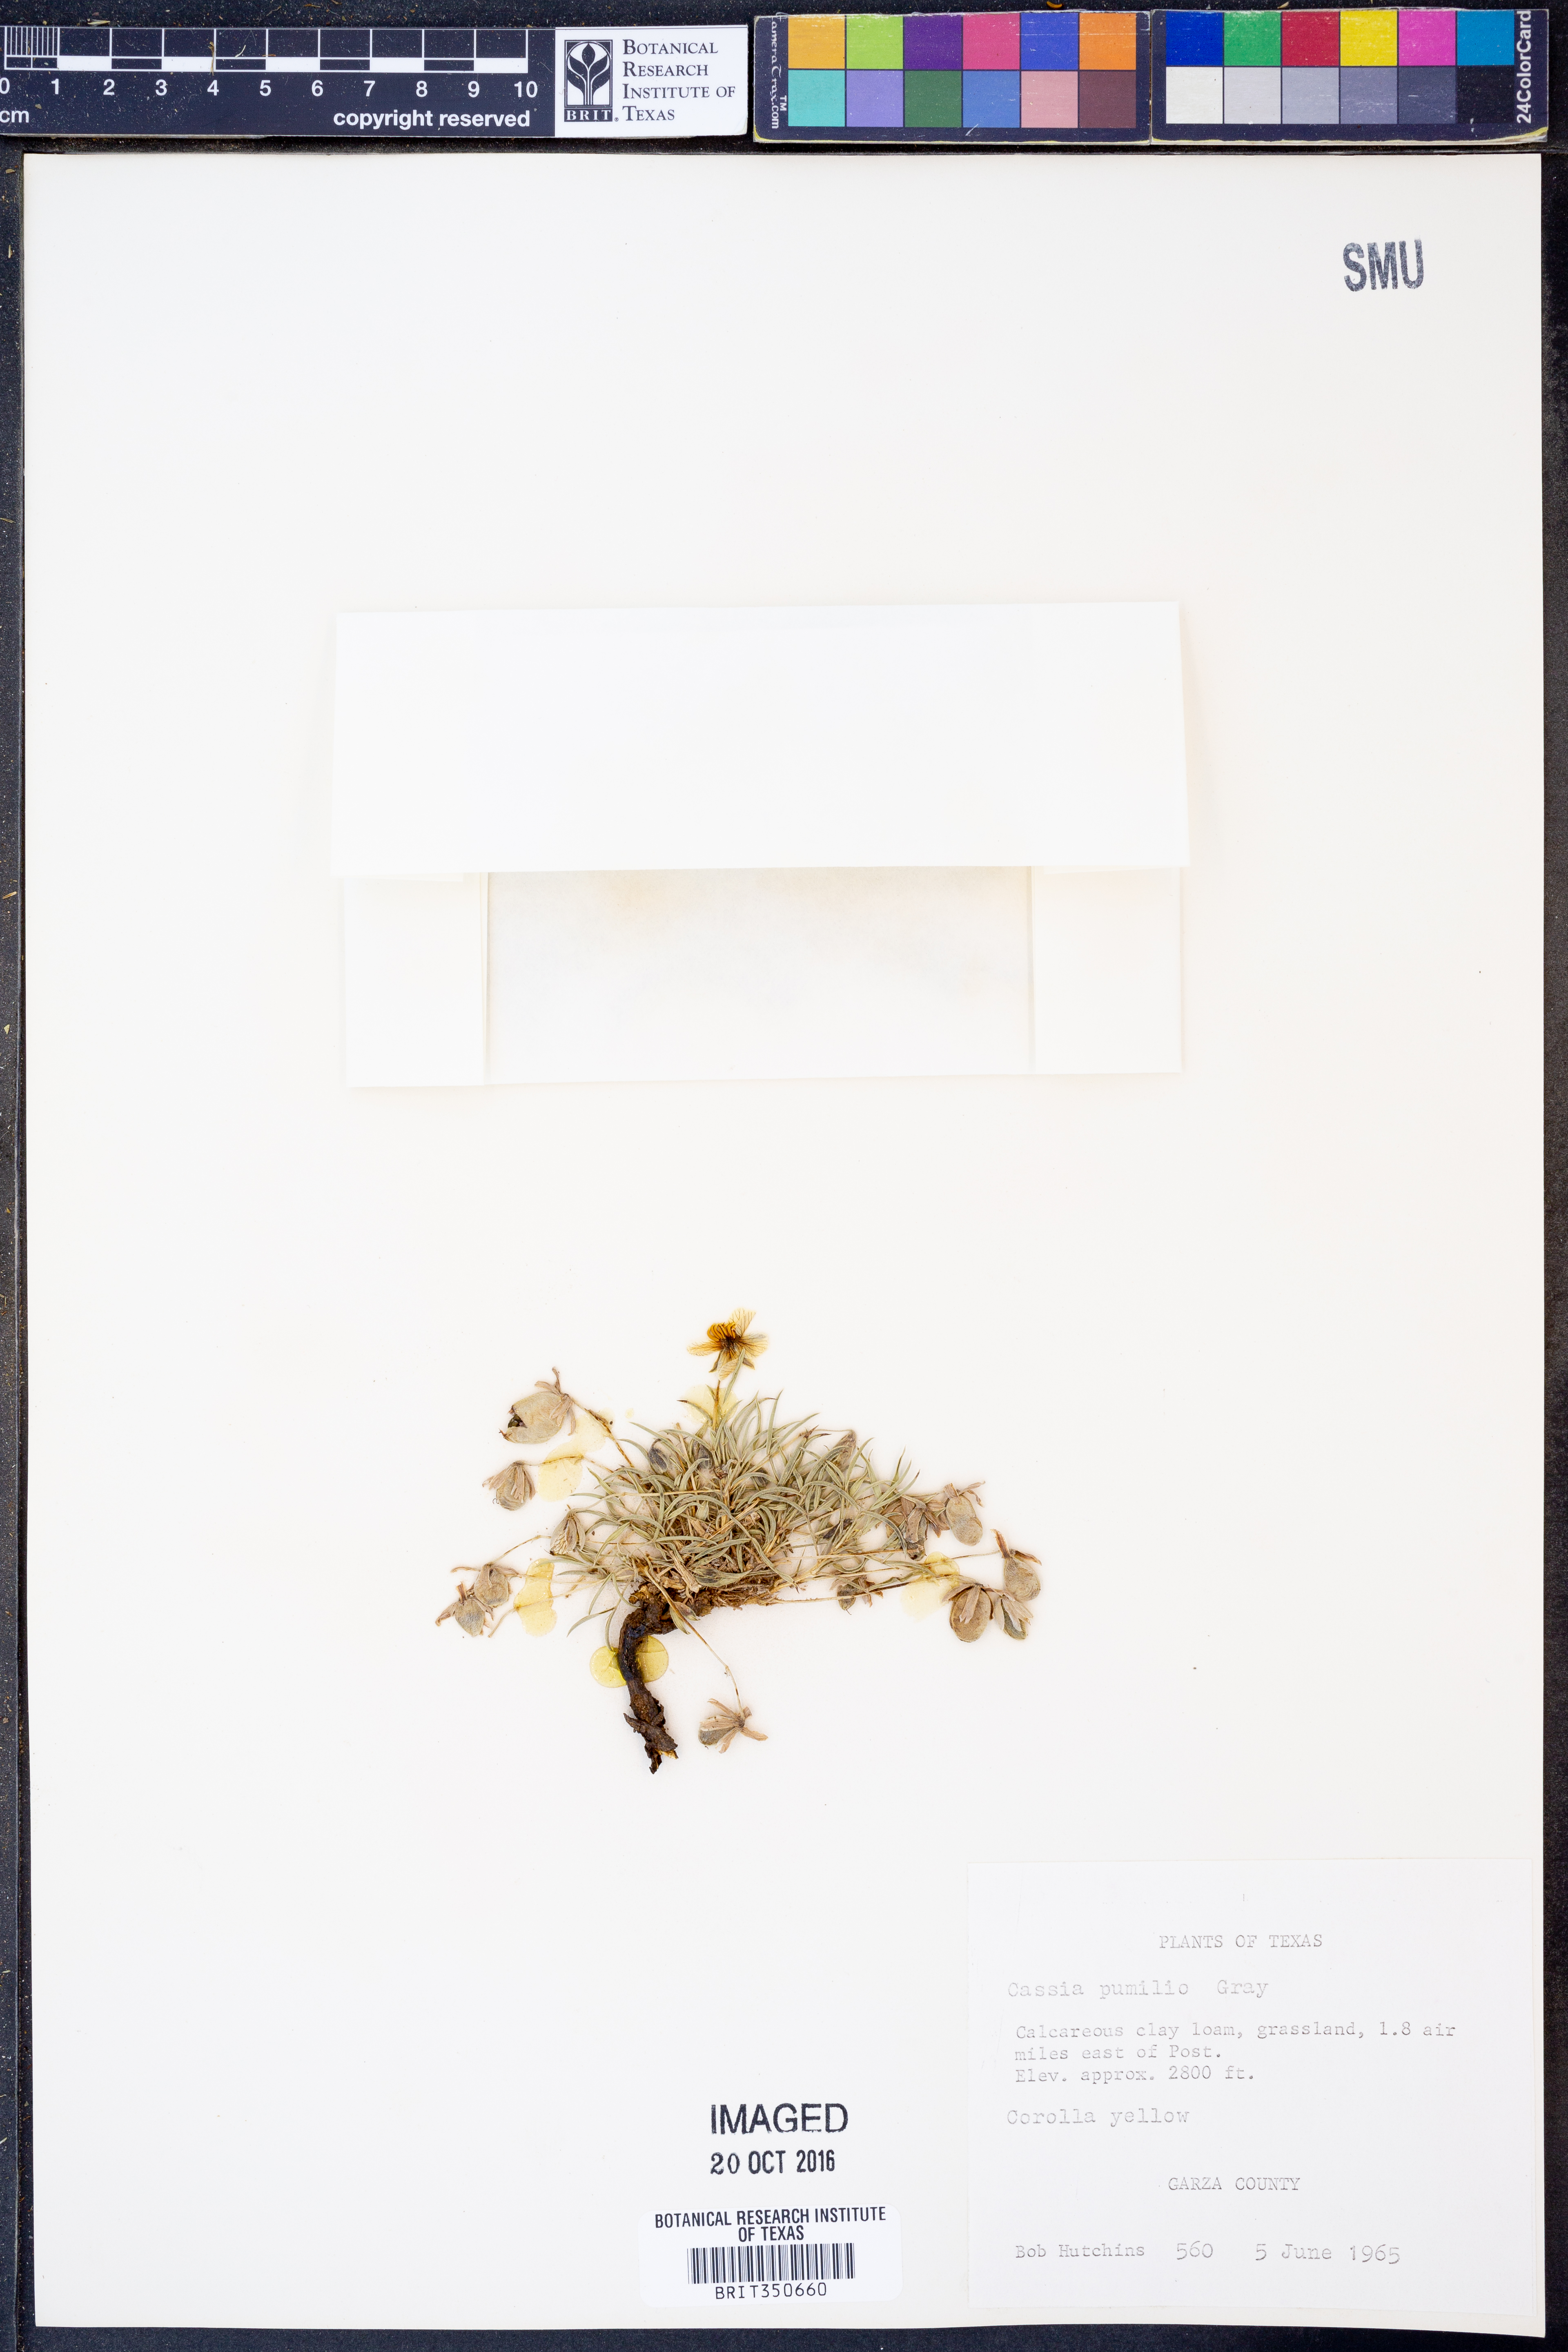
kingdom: Plantae
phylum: Tracheophyta
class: Magnoliopsida
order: Fabales
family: Fabaceae
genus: Senna
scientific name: Senna pumilio
